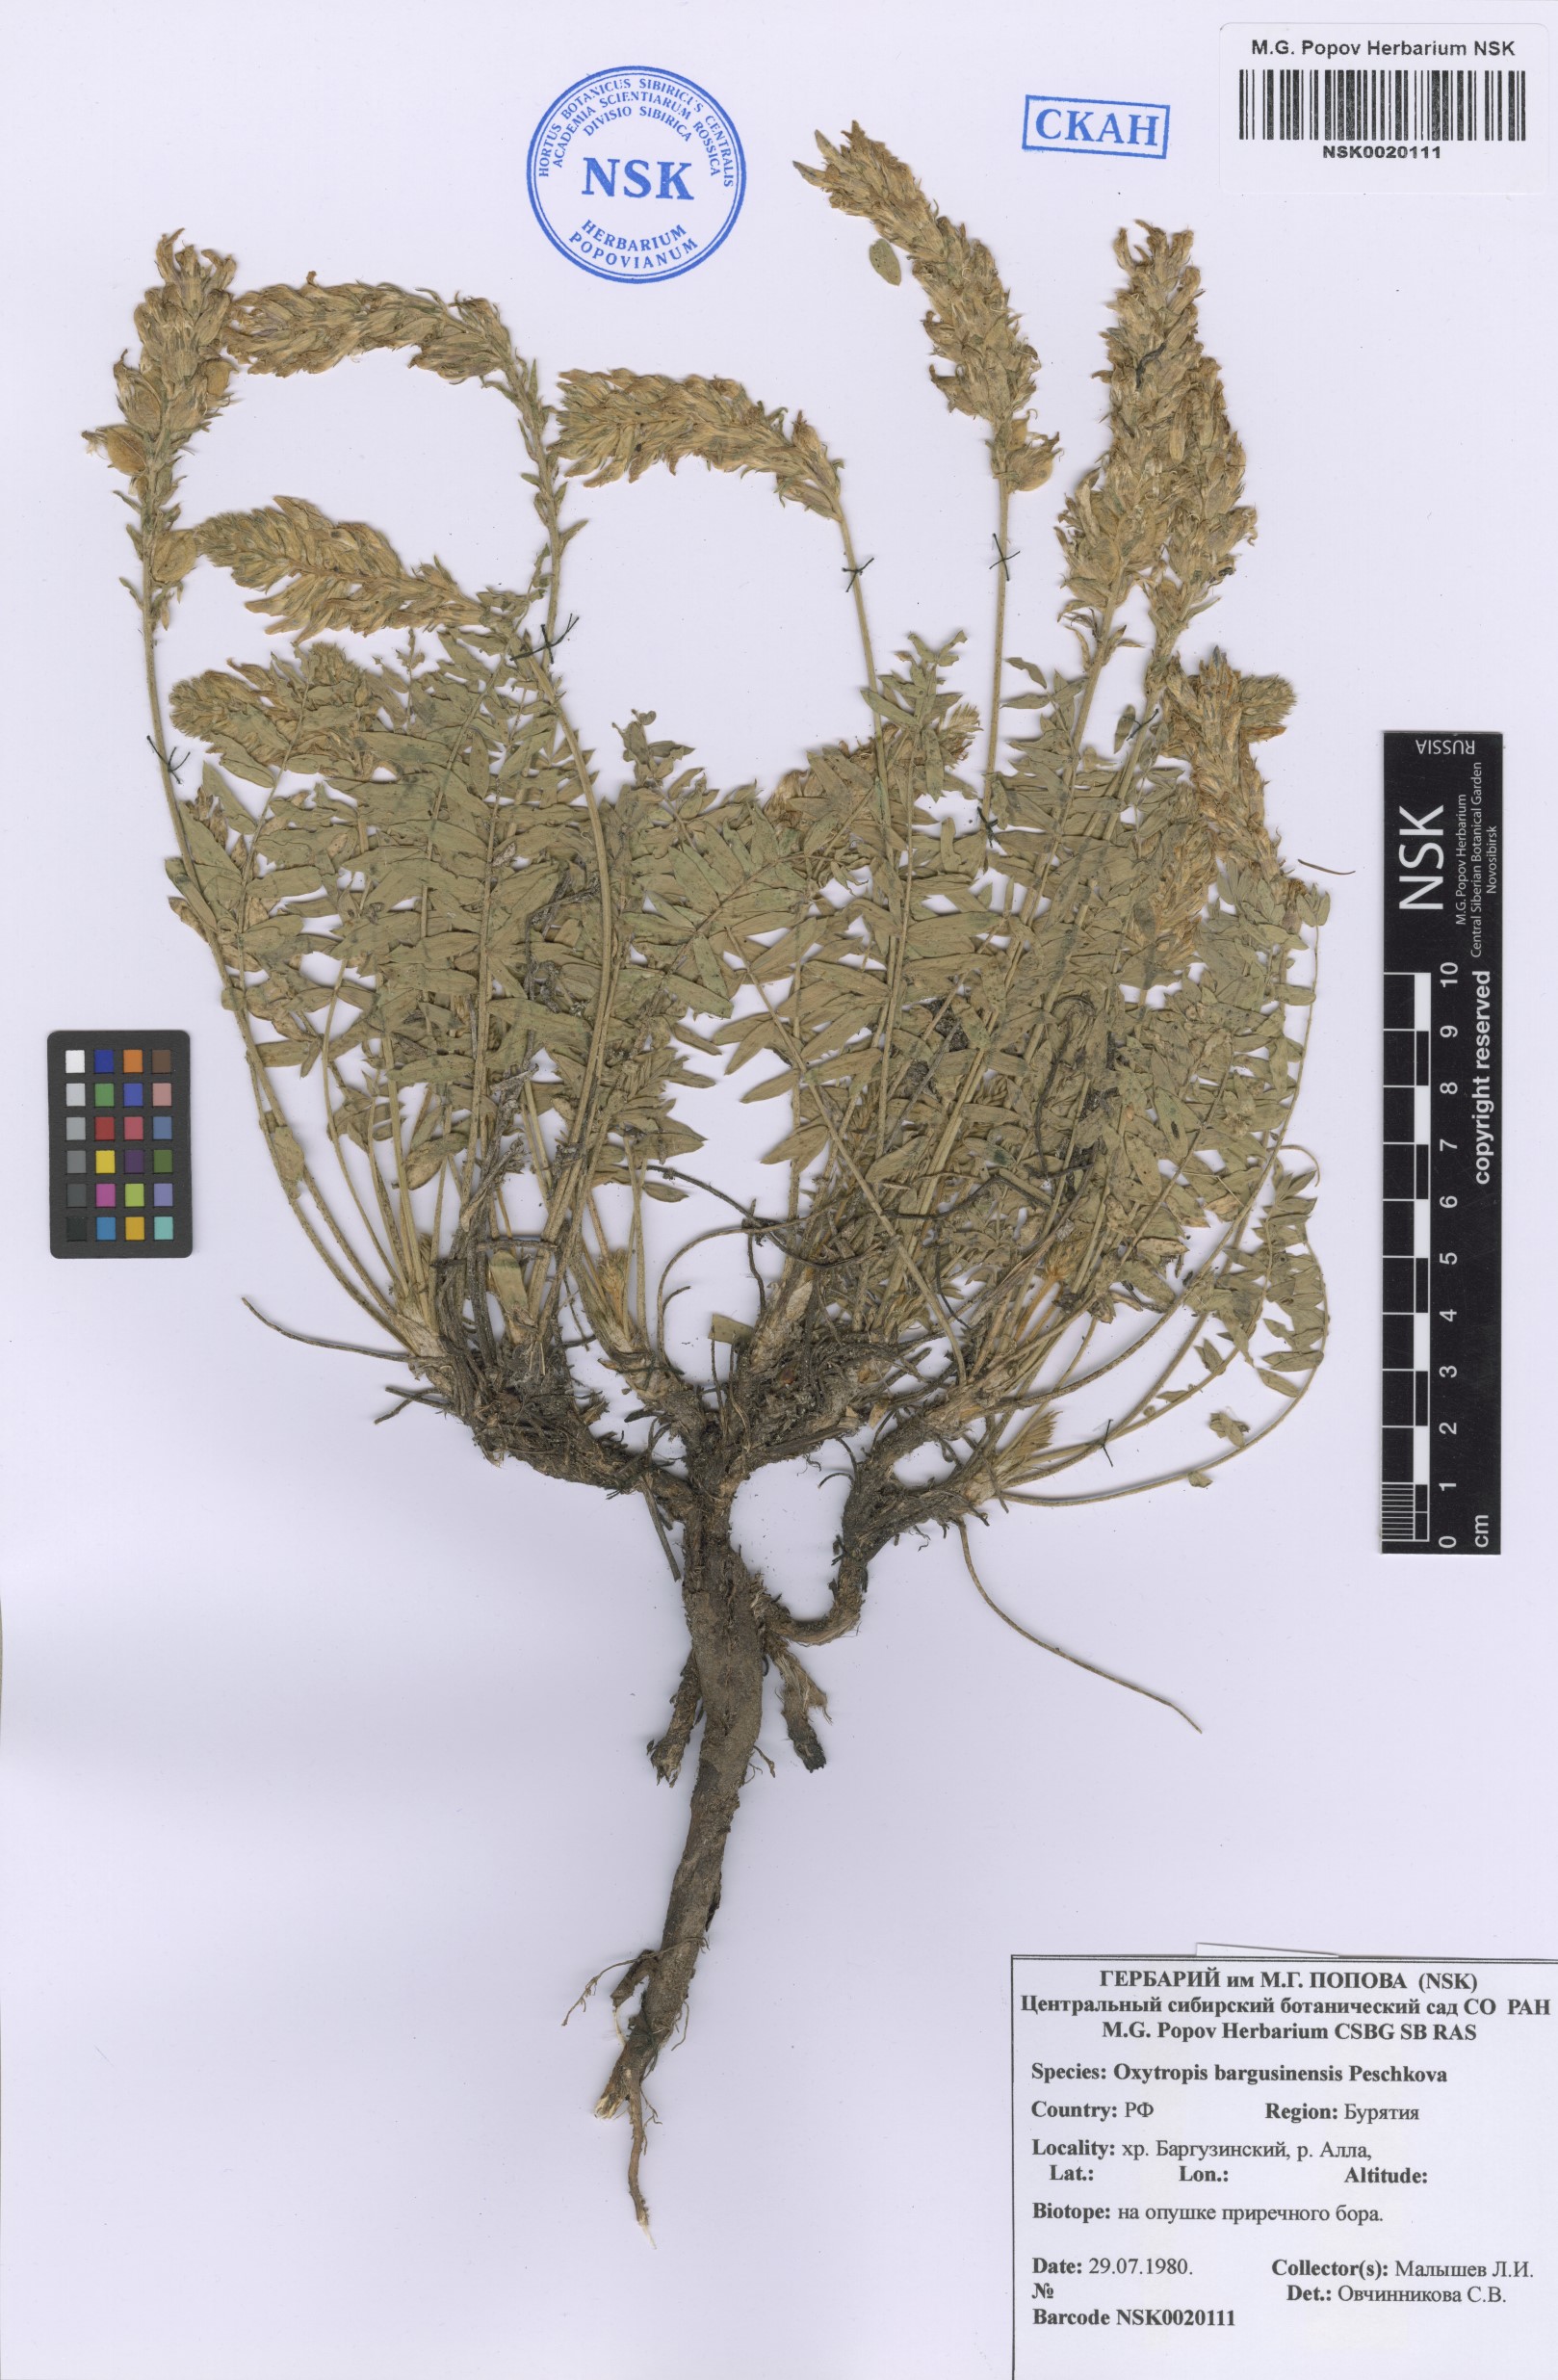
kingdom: Plantae
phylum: Tracheophyta
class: Magnoliopsida
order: Fabales
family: Fabaceae
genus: Oxytropis
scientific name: Oxytropis bargusinensis
